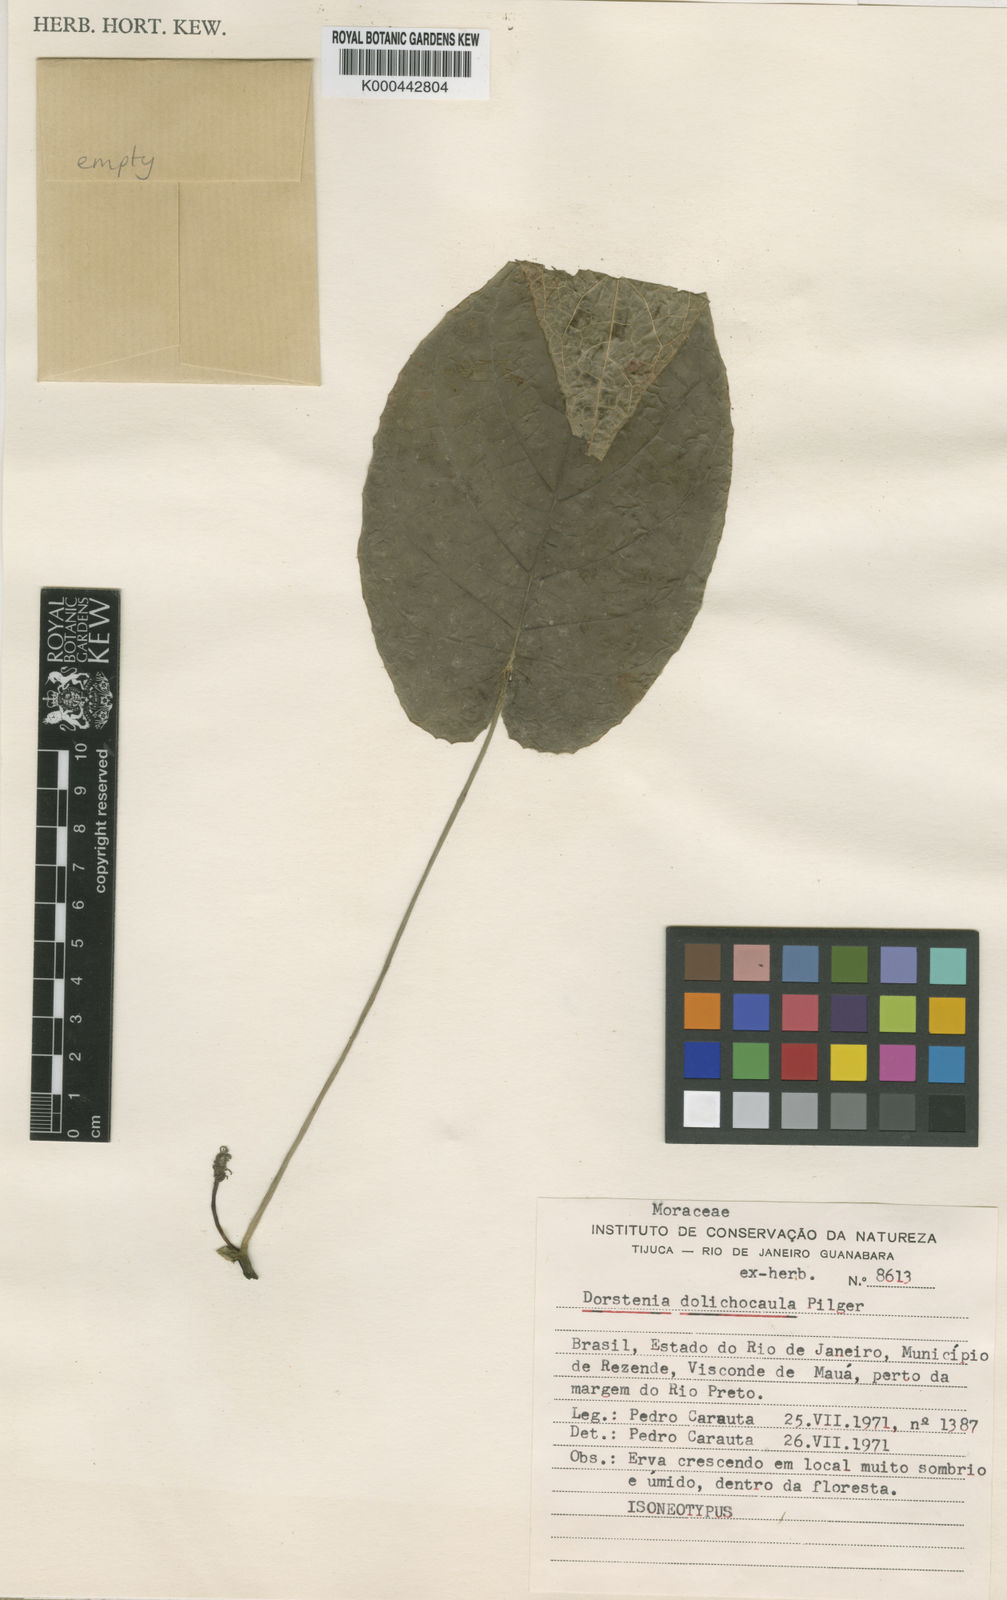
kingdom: Plantae
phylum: Tracheophyta
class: Magnoliopsida
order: Rosales
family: Moraceae
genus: Dorstenia
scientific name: Dorstenia ramosa
